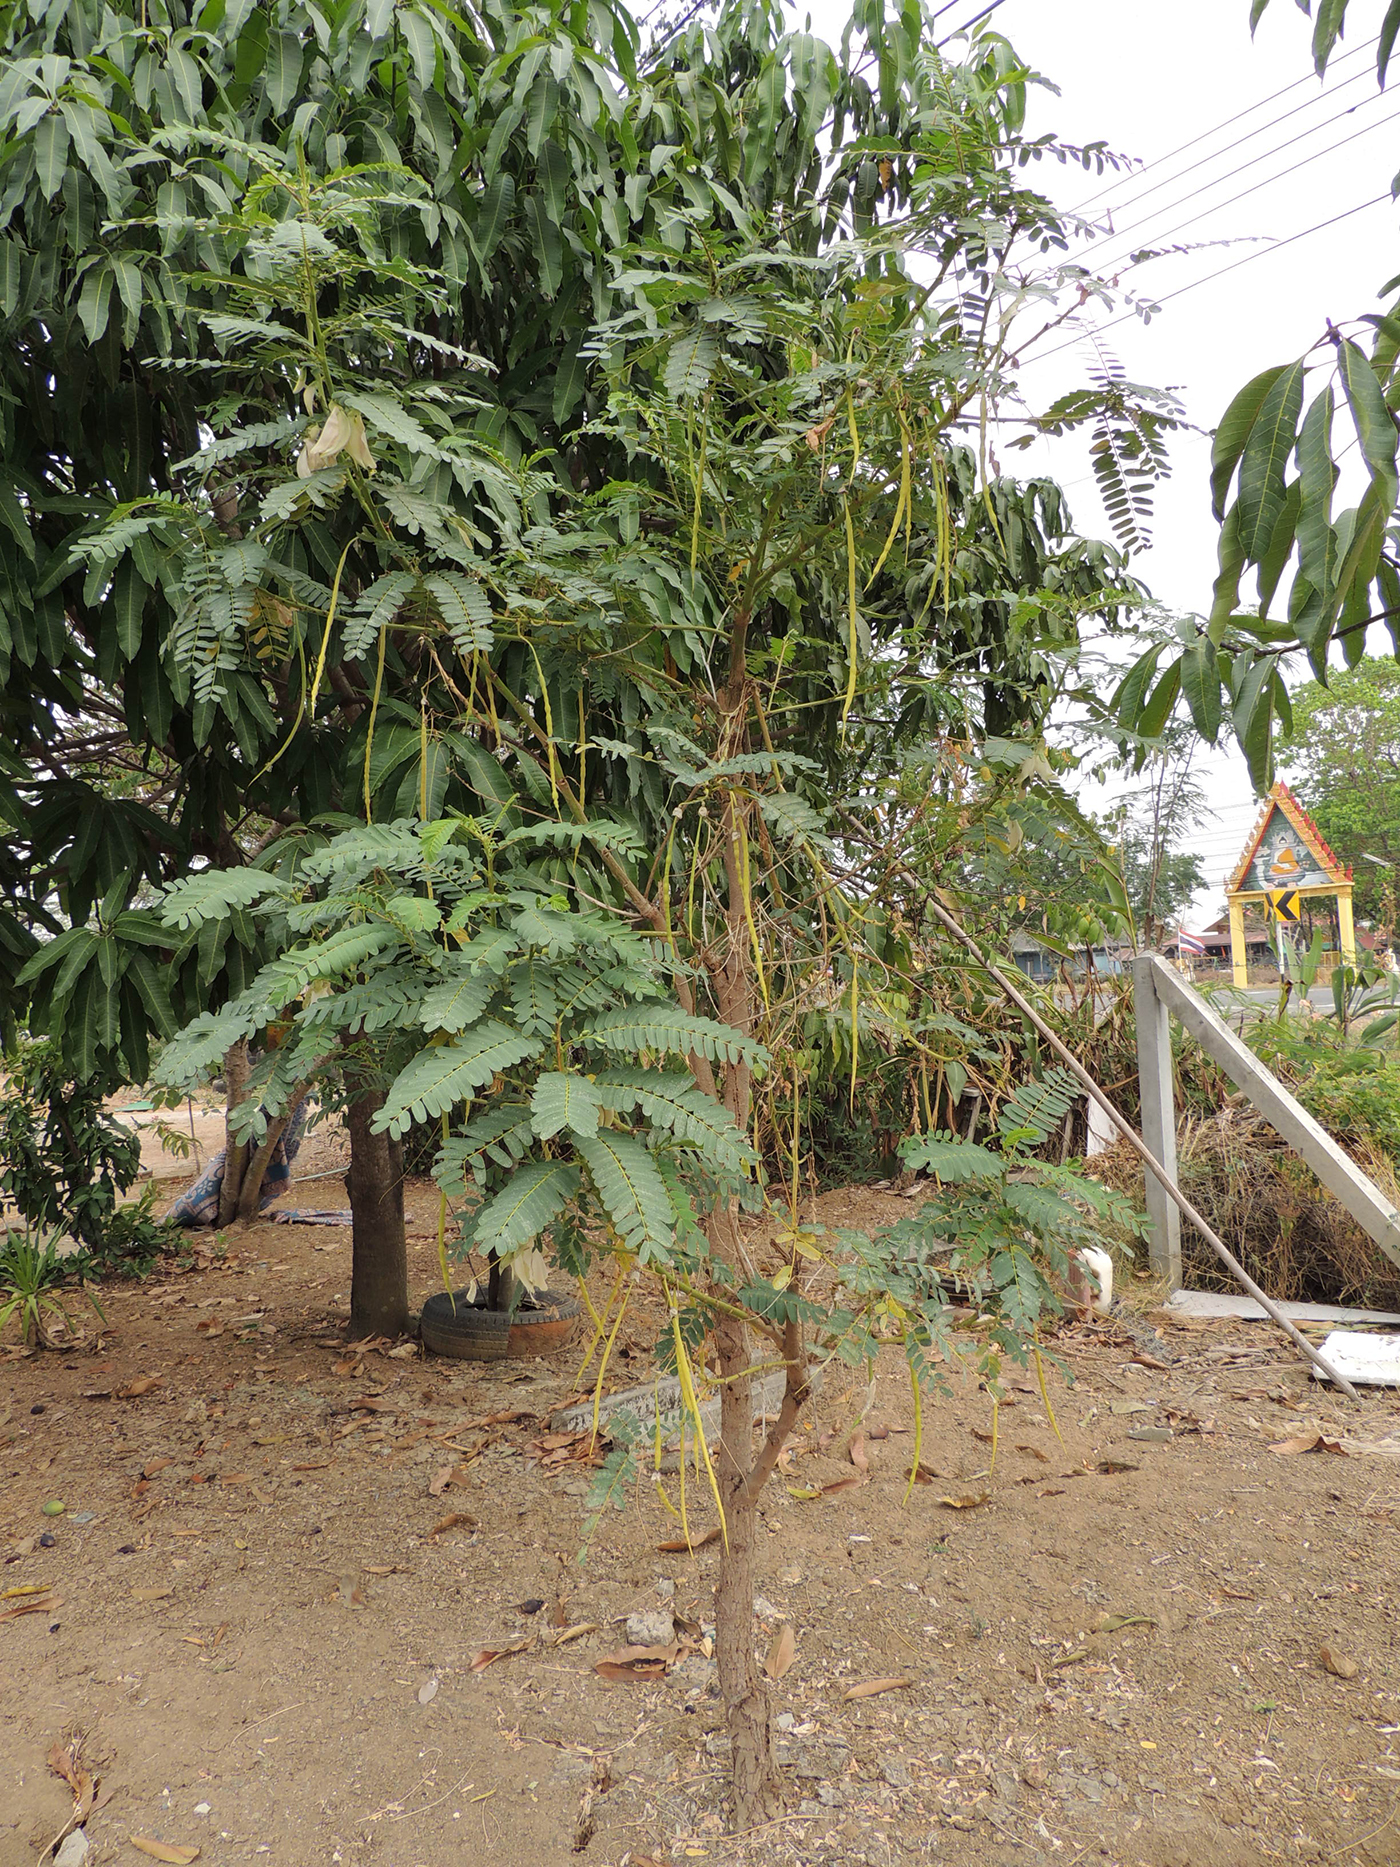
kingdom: Plantae
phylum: Tracheophyta
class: Magnoliopsida
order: Fabales
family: Fabaceae
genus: Sesbania
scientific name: Sesbania grandiflora
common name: Vegetable-hummingbird
